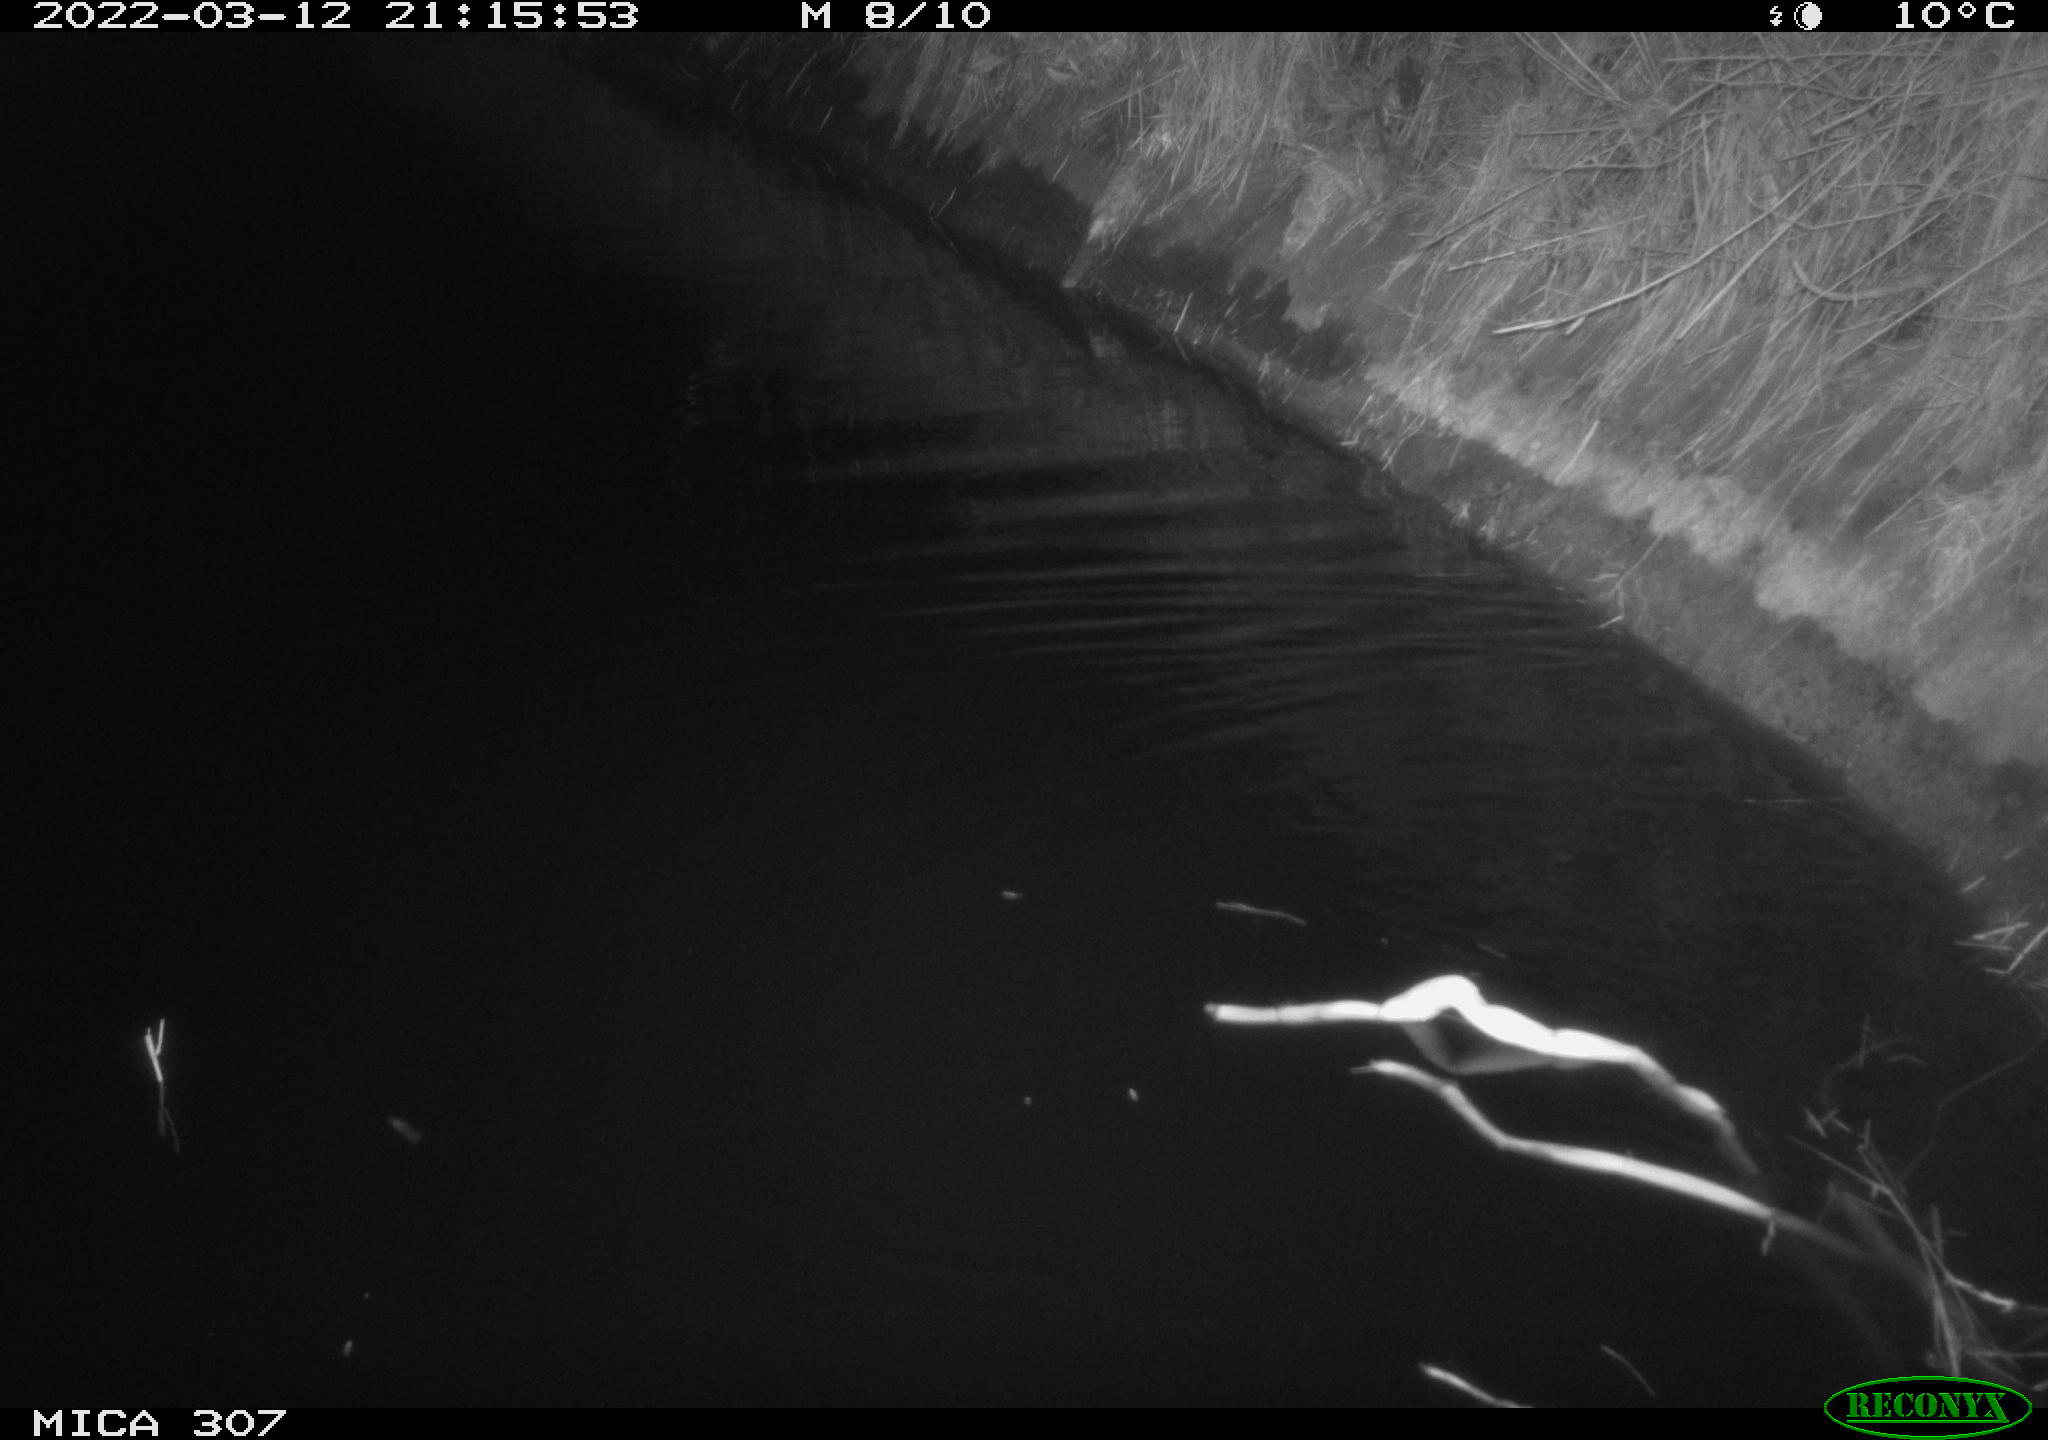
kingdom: Animalia
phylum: Chordata
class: Mammalia
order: Rodentia
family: Muridae
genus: Rattus
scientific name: Rattus norvegicus
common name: Brown rat
